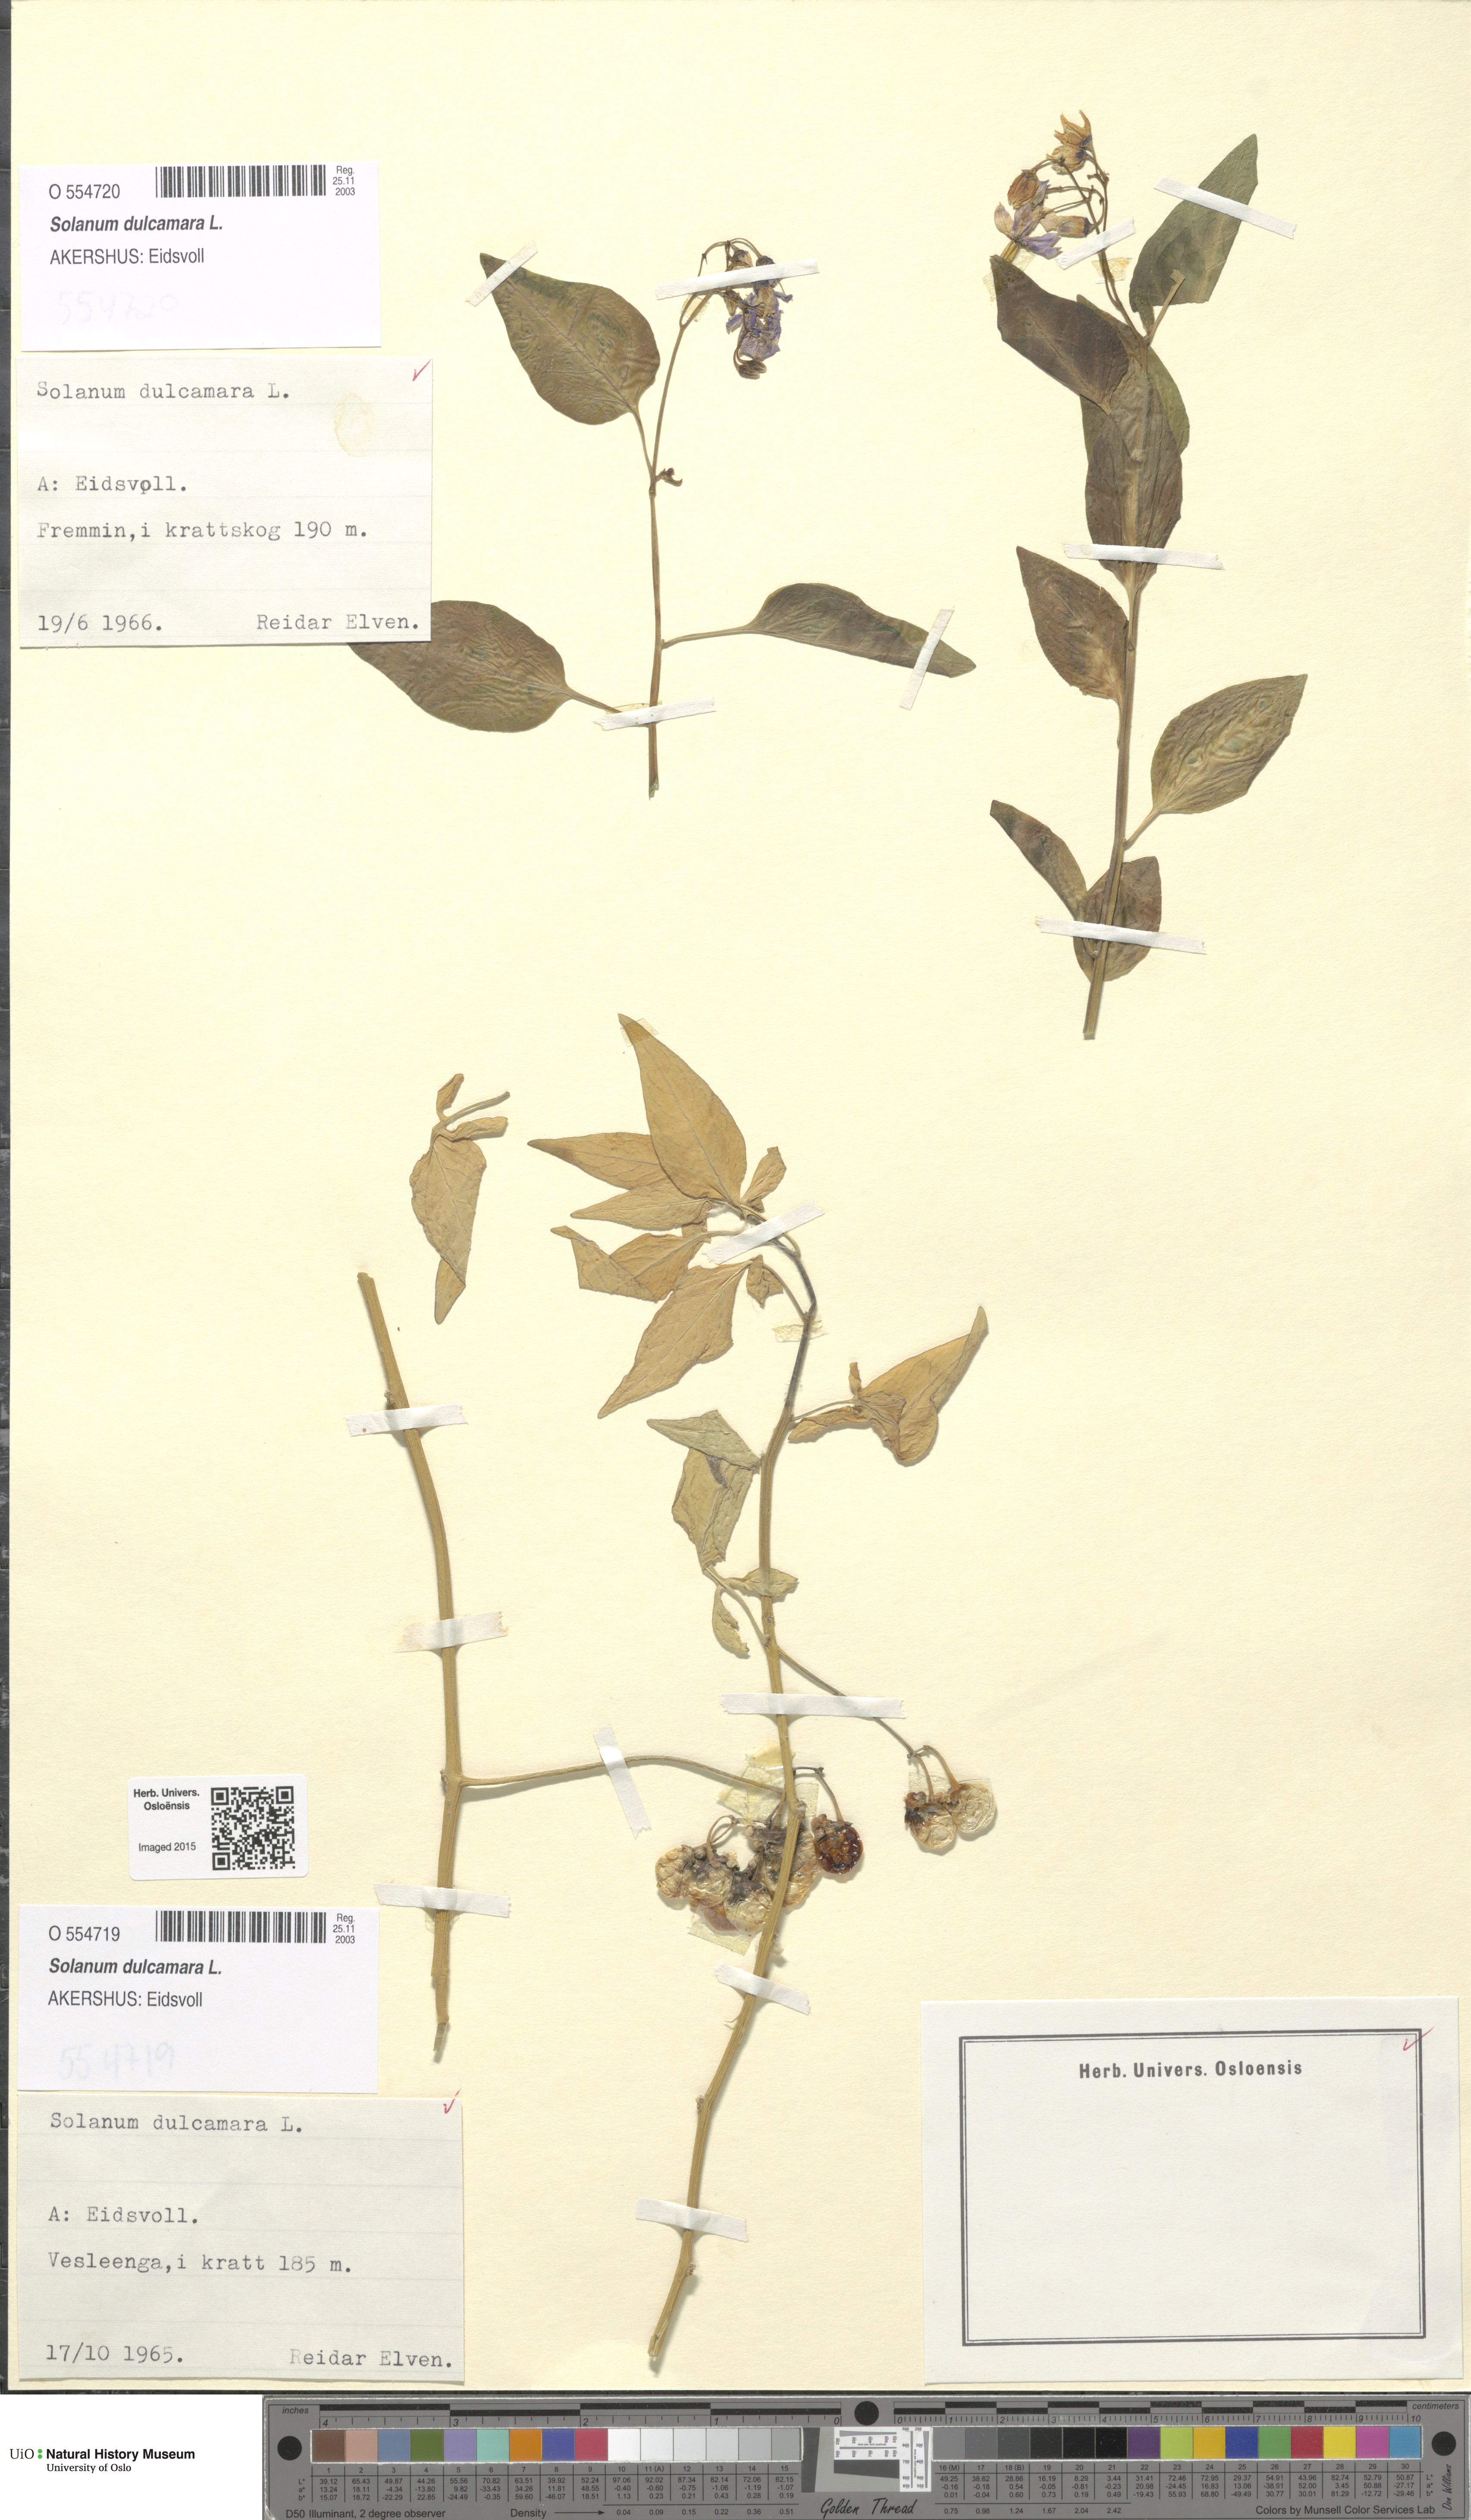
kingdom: Plantae
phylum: Tracheophyta
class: Magnoliopsida
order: Solanales
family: Solanaceae
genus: Solanum
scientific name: Solanum dulcamara
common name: Climbing nightshade
